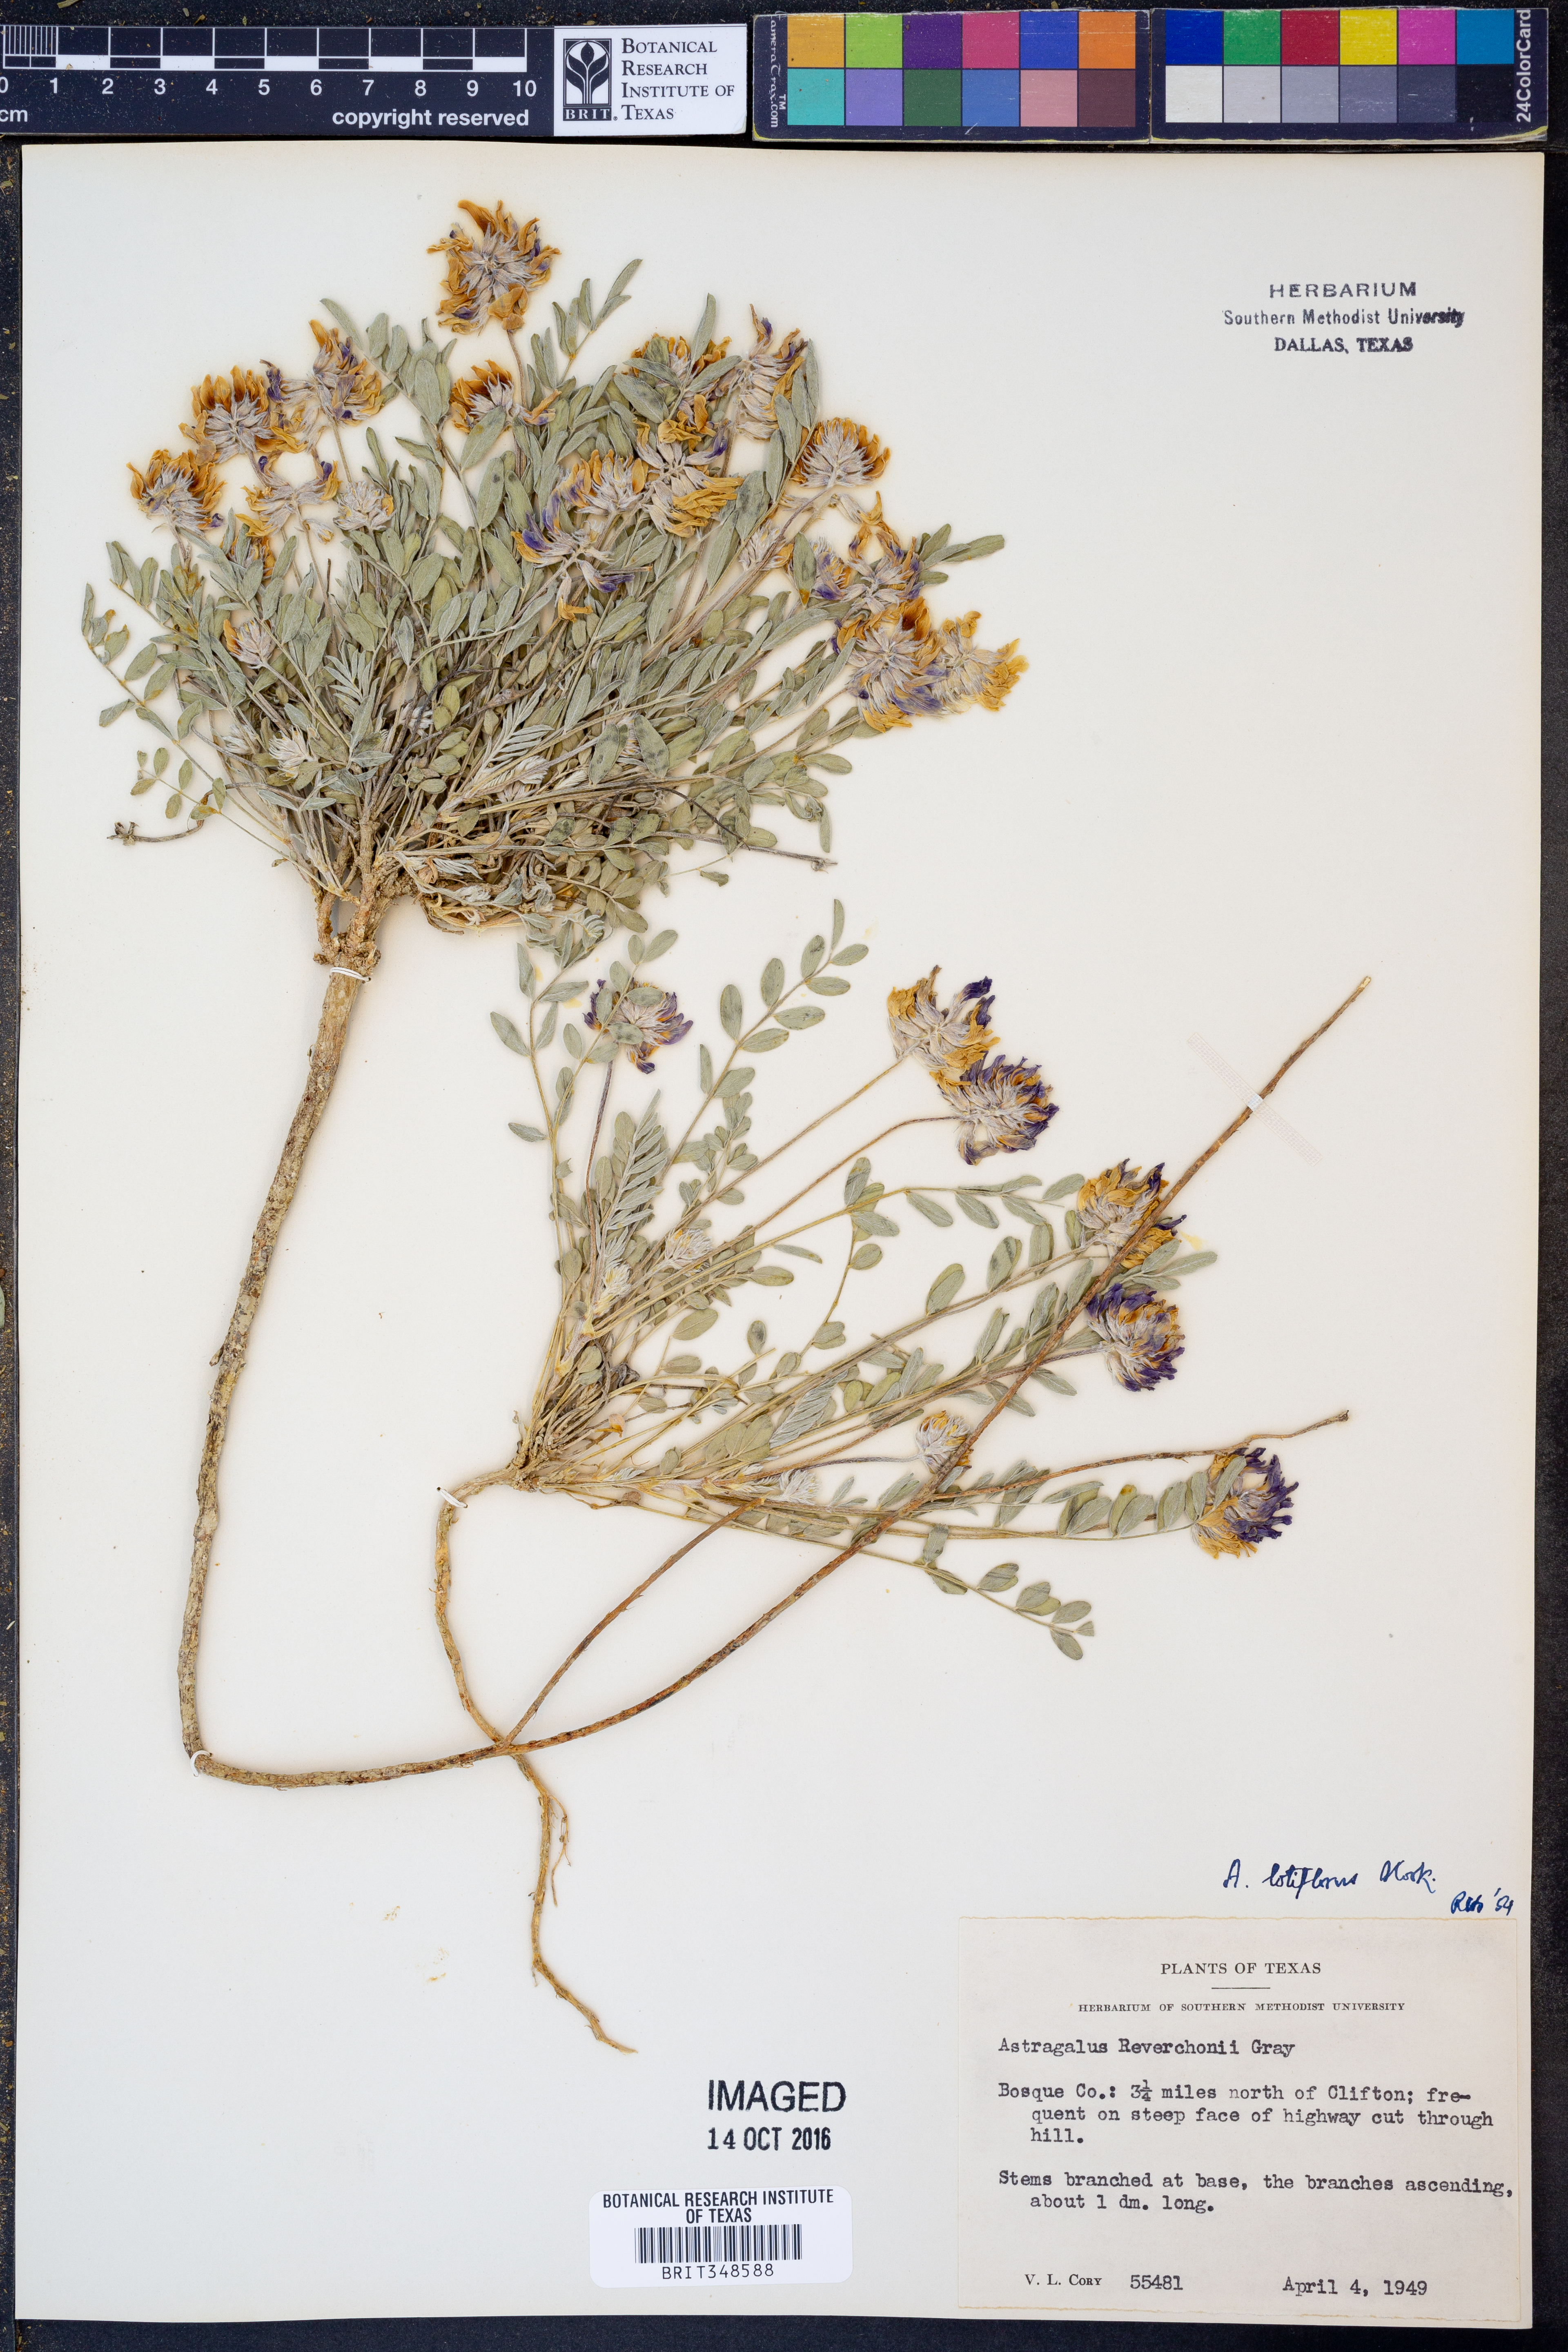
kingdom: Plantae
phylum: Tracheophyta
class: Magnoliopsida
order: Fabales
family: Fabaceae
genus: Astragalus
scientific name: Astragalus lotiflorus
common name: Lotus milk-vetch
